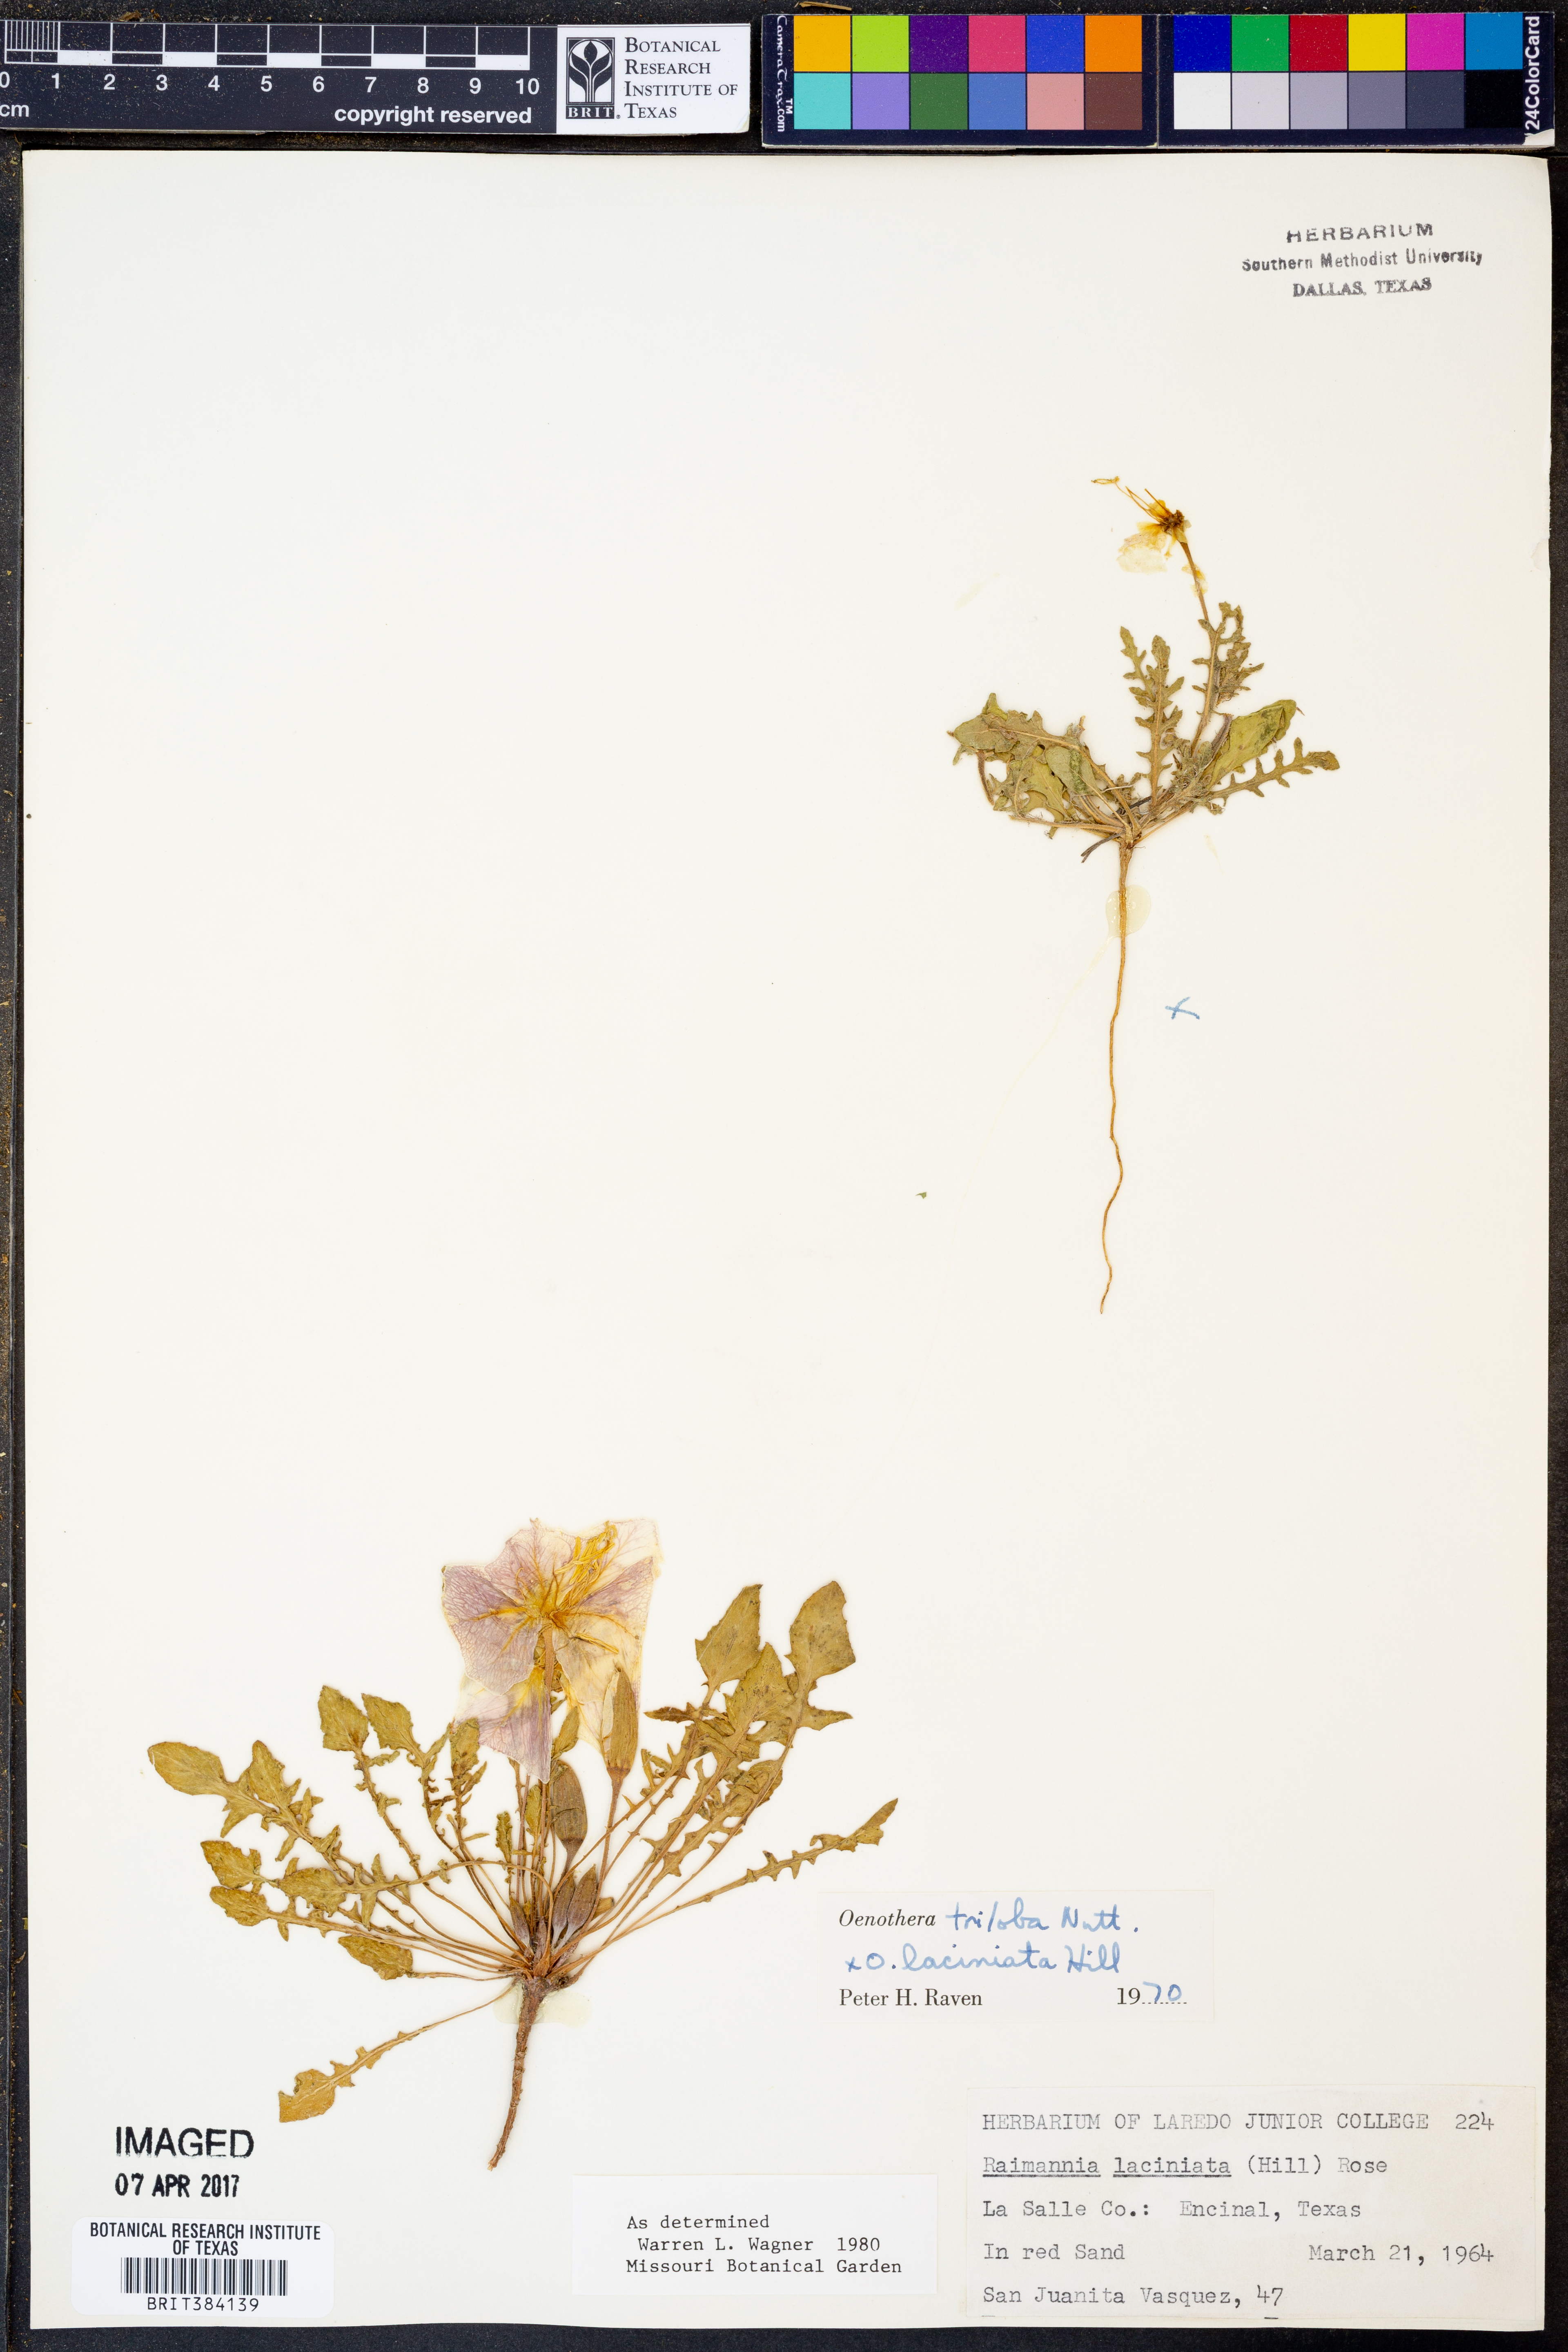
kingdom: Plantae
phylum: Tracheophyta
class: Magnoliopsida
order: Myrtales
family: Onagraceae
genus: Oenothera
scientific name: Oenothera triloba
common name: Sessile evening-primrose
